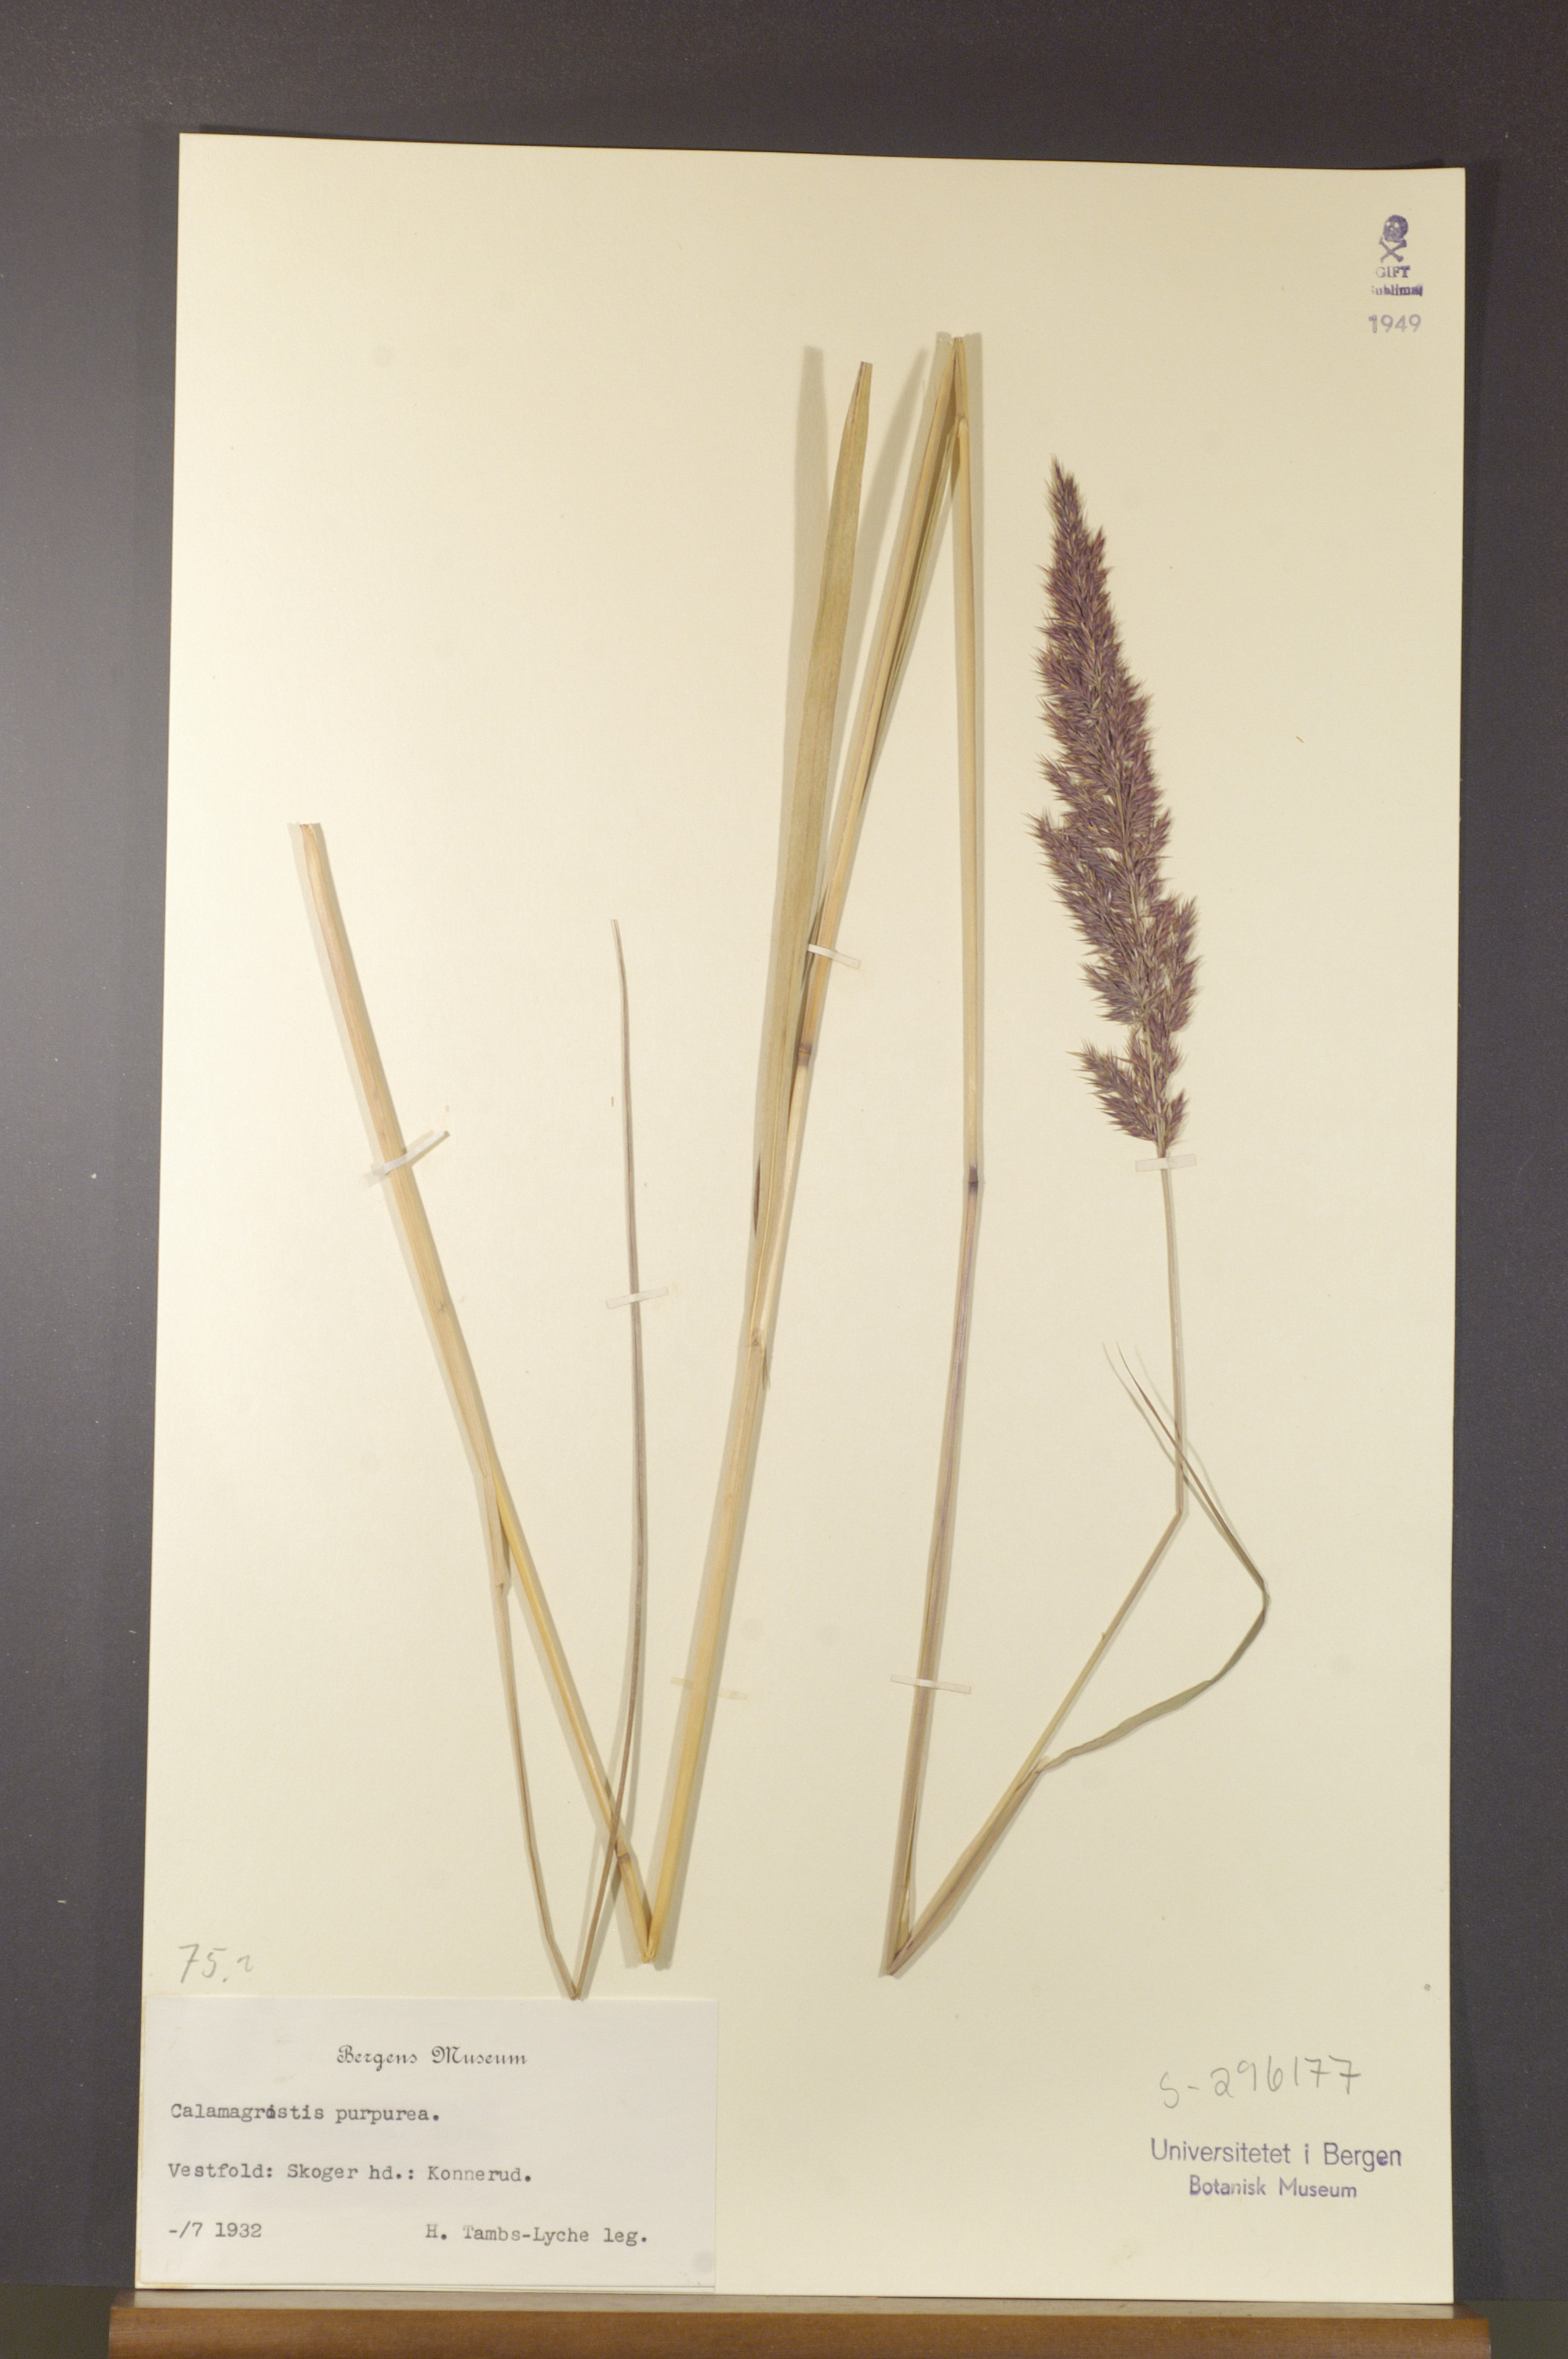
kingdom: Plantae
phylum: Tracheophyta
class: Liliopsida
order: Poales
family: Poaceae
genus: Calamagrostis
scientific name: Calamagrostis purpurea
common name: Scandinavian small-reed
